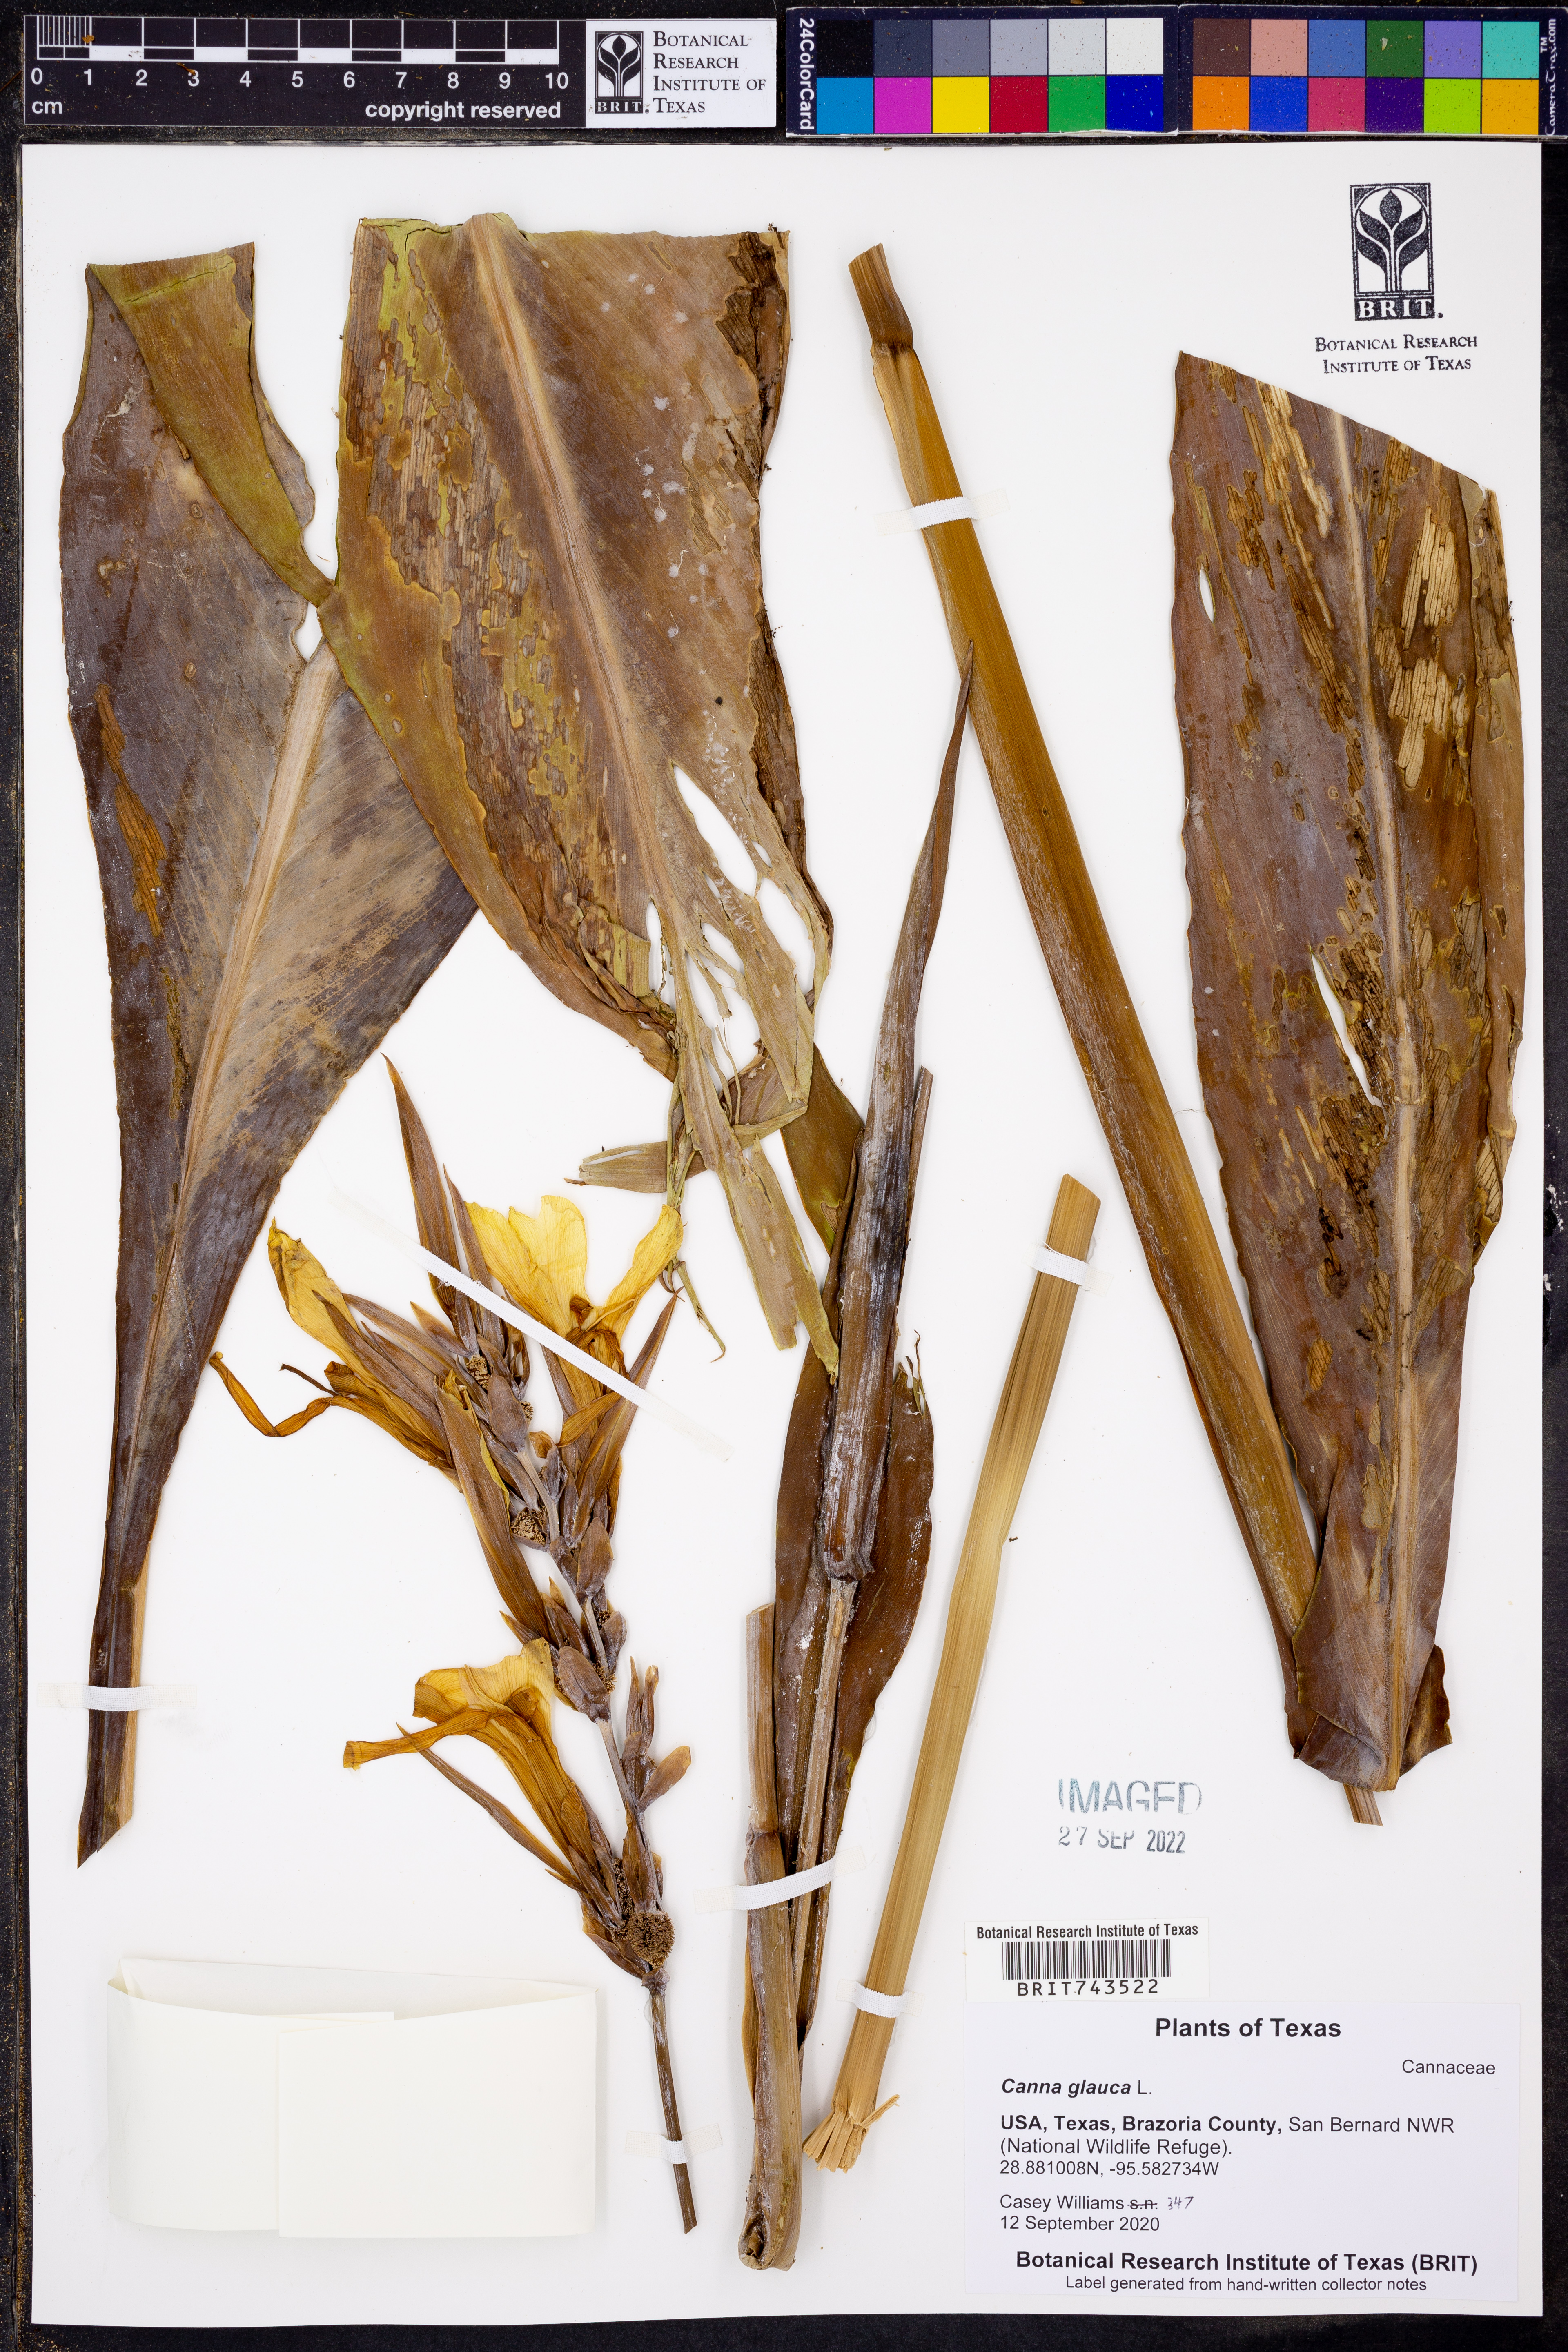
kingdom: Plantae
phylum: Tracheophyta
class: Liliopsida
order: Zingiberales
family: Cannaceae
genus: Canna
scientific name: Canna glauca
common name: Louisiana canna
